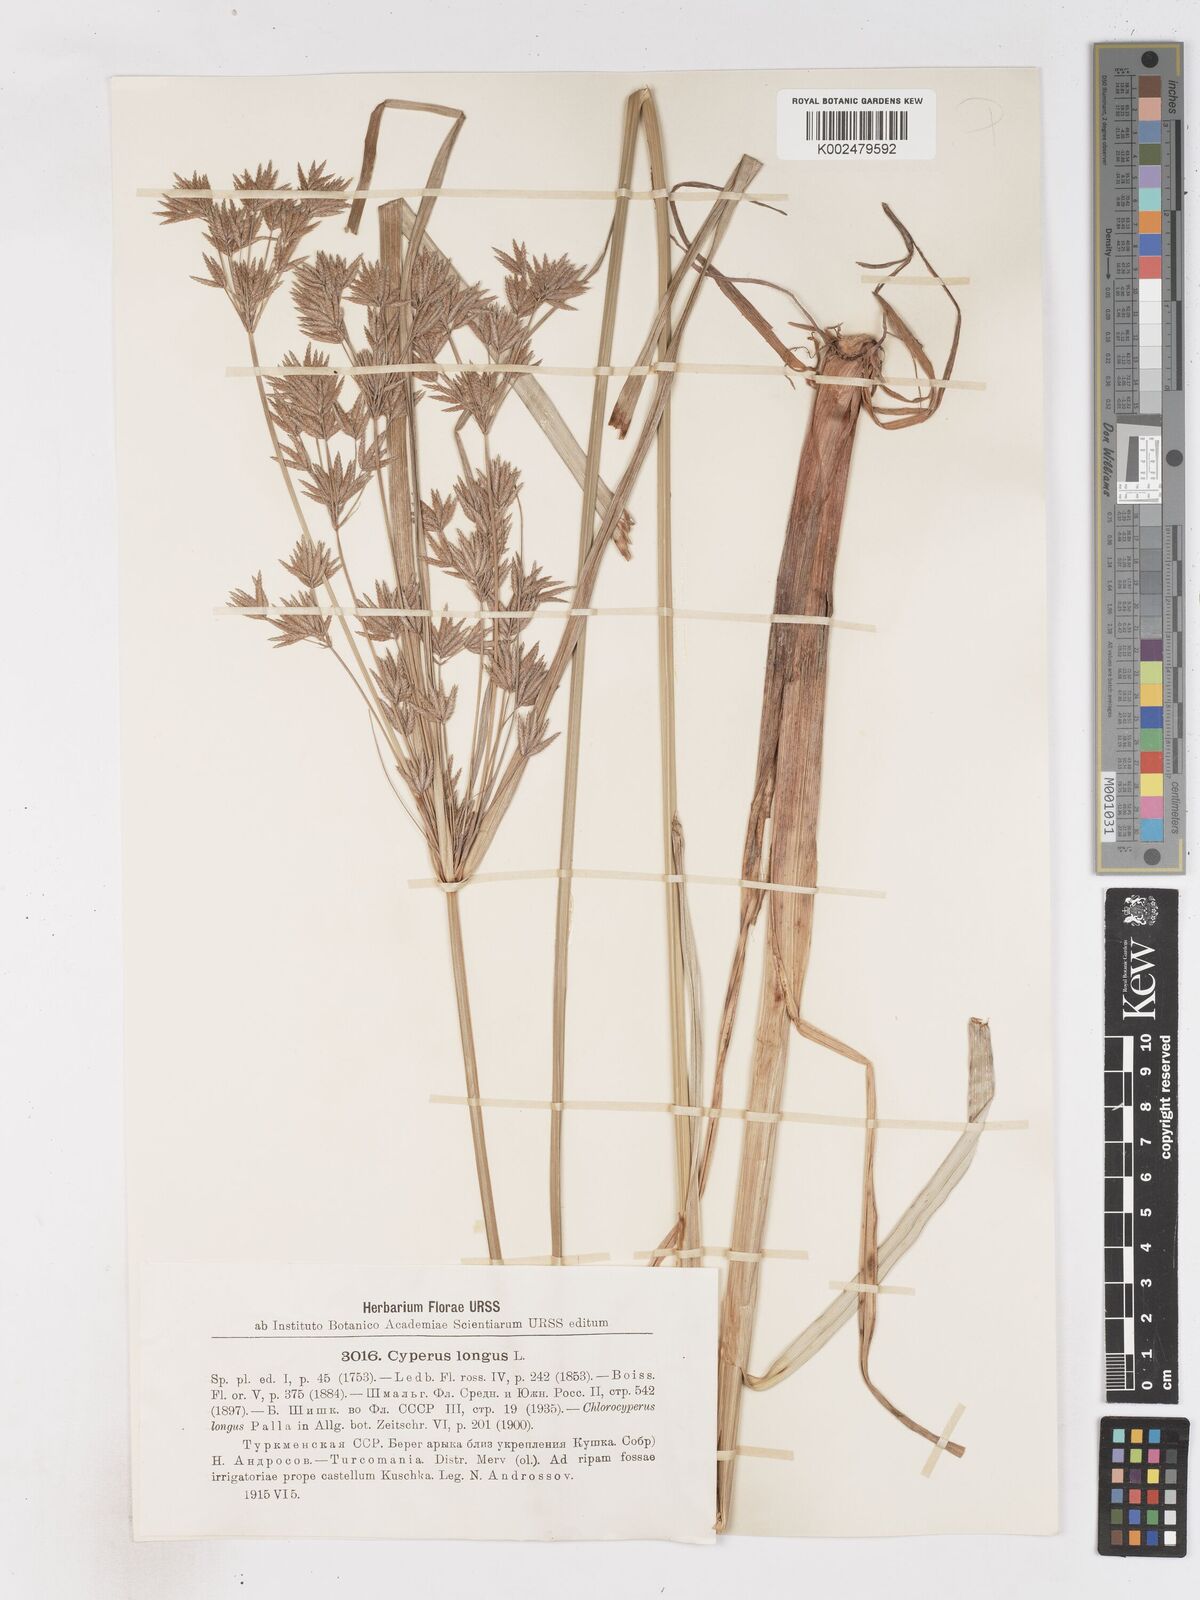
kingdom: Plantae
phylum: Tracheophyta
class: Liliopsida
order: Poales
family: Cyperaceae
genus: Cyperus
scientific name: Cyperus longus
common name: Galingale
